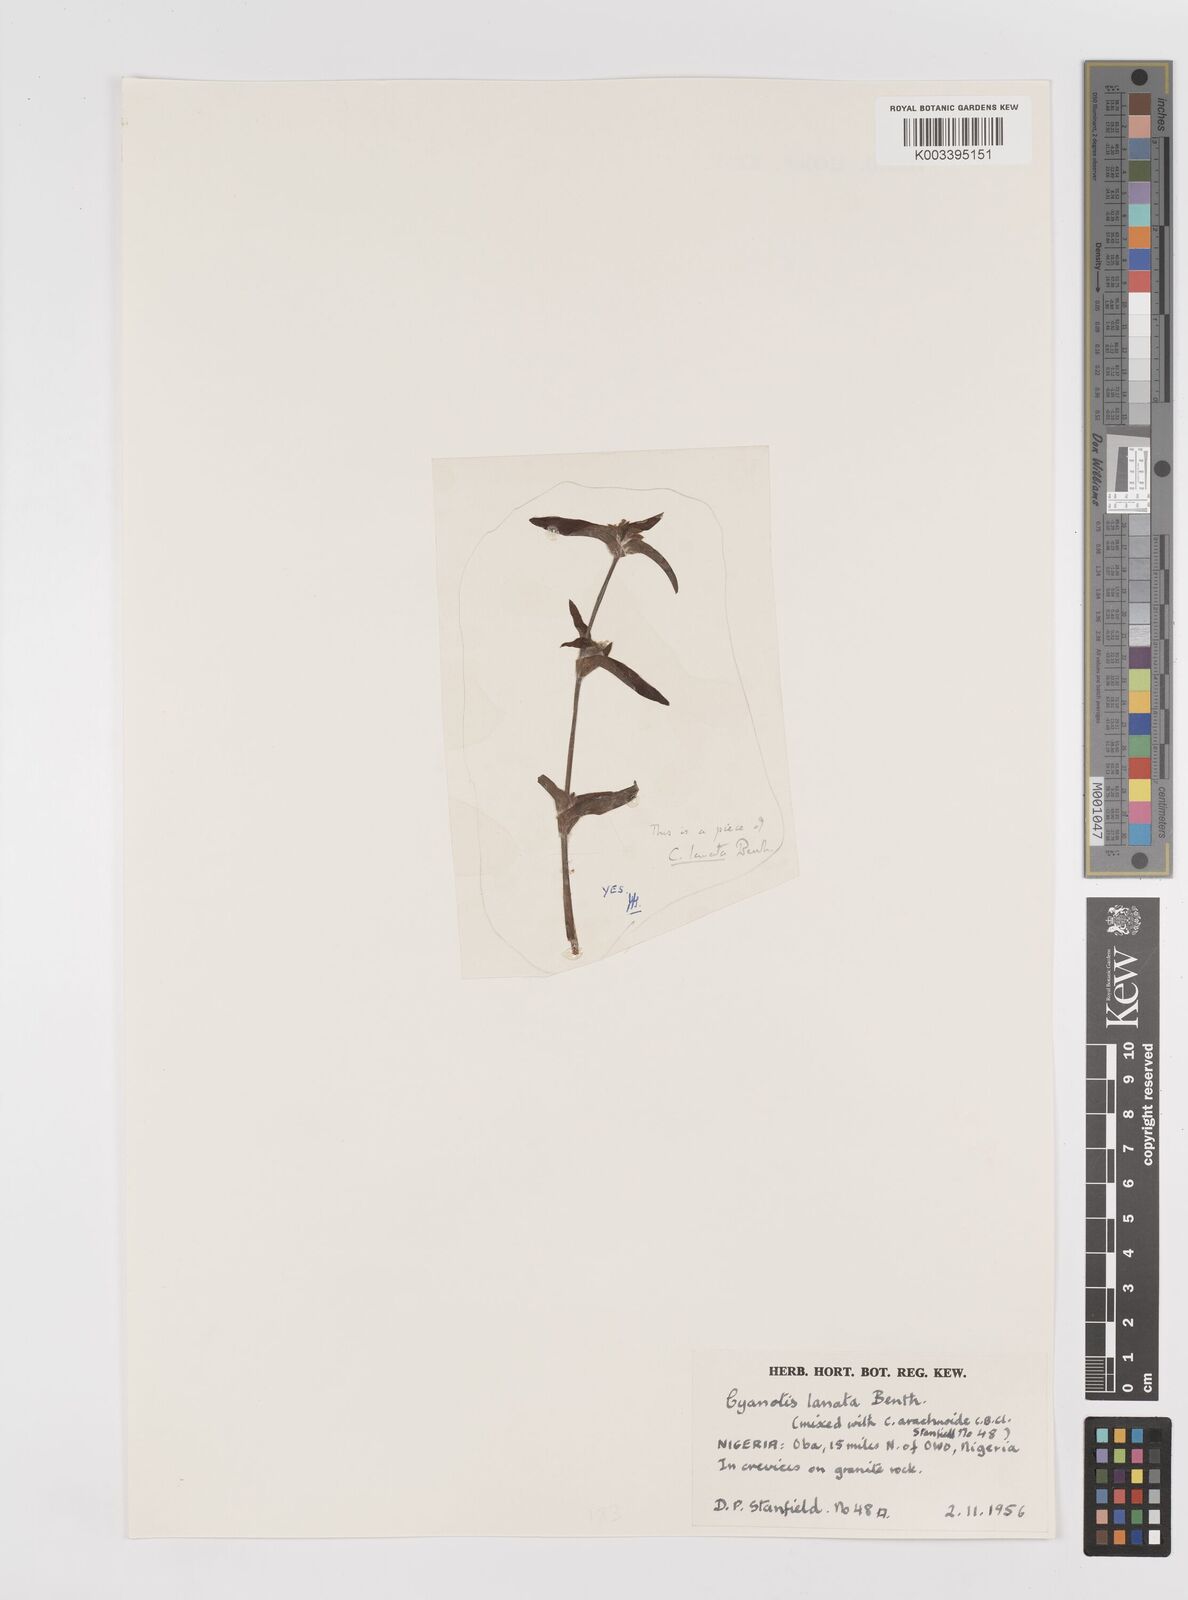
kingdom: Plantae
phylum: Tracheophyta
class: Liliopsida
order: Commelinales
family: Commelinaceae
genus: Cyanotis
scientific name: Cyanotis lanata
